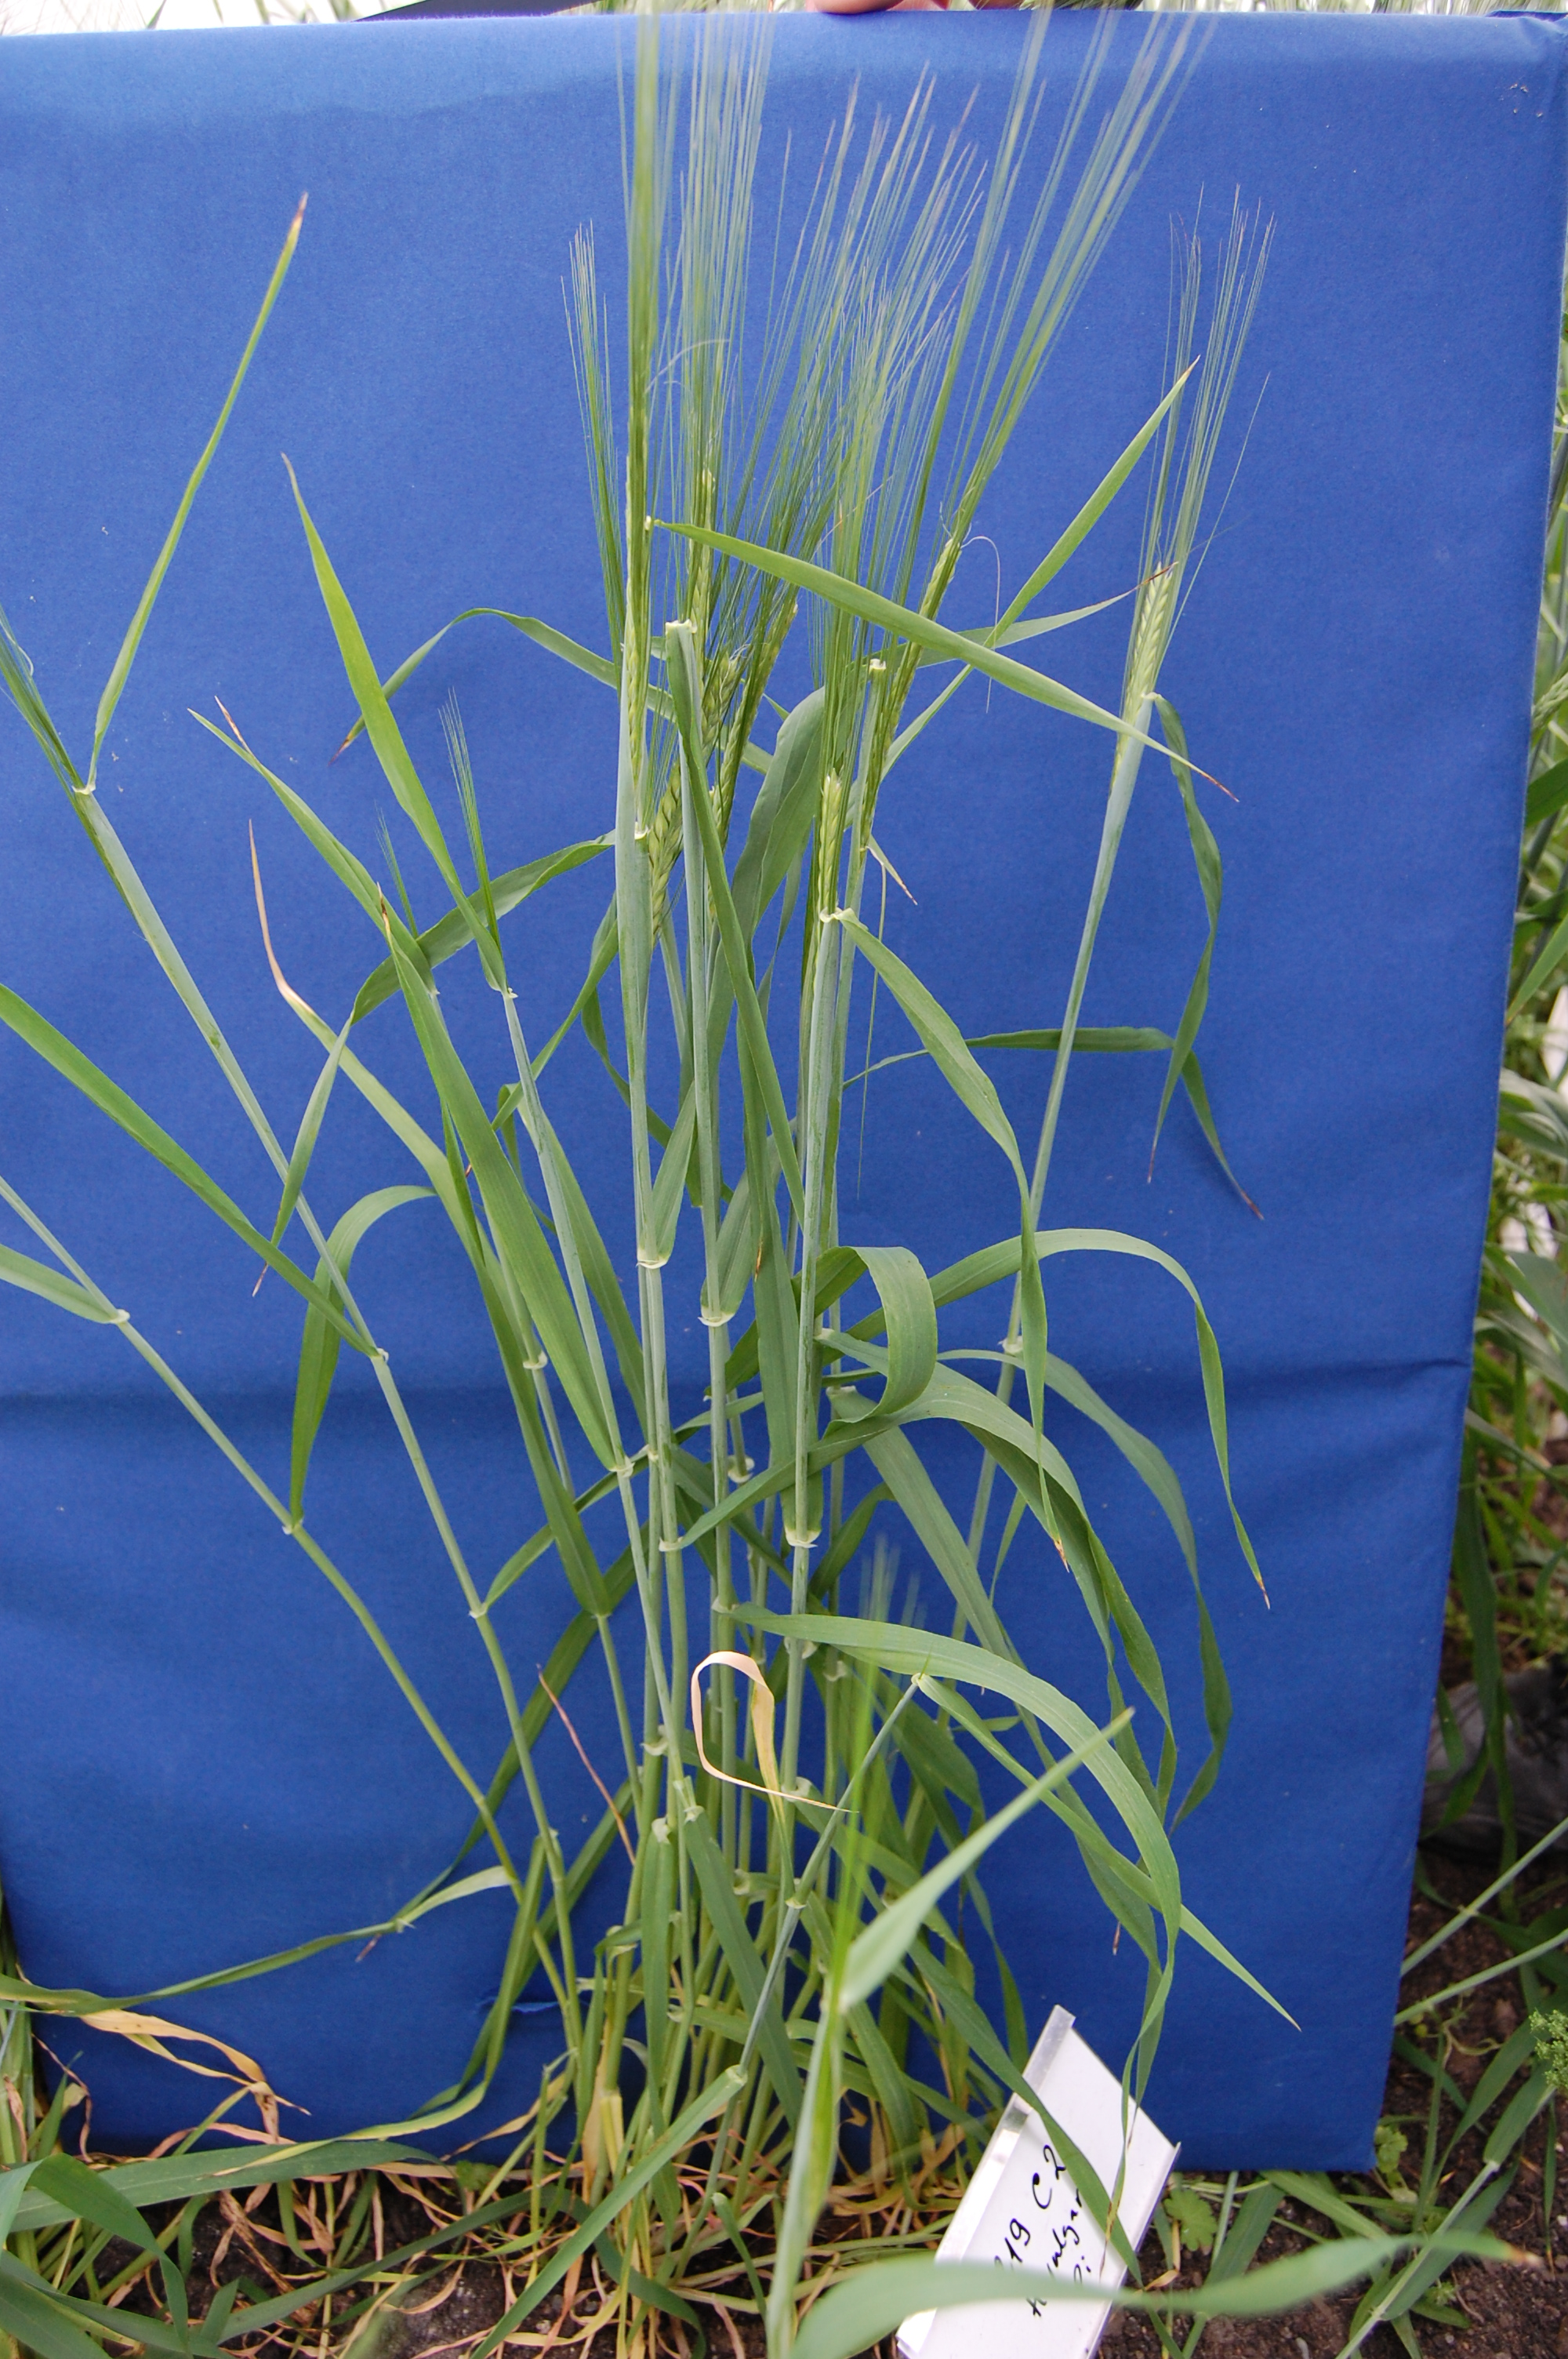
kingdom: Plantae
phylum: Tracheophyta
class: Liliopsida
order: Poales
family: Poaceae
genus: Hordeum
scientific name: Hordeum vulgare
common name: Common barley
